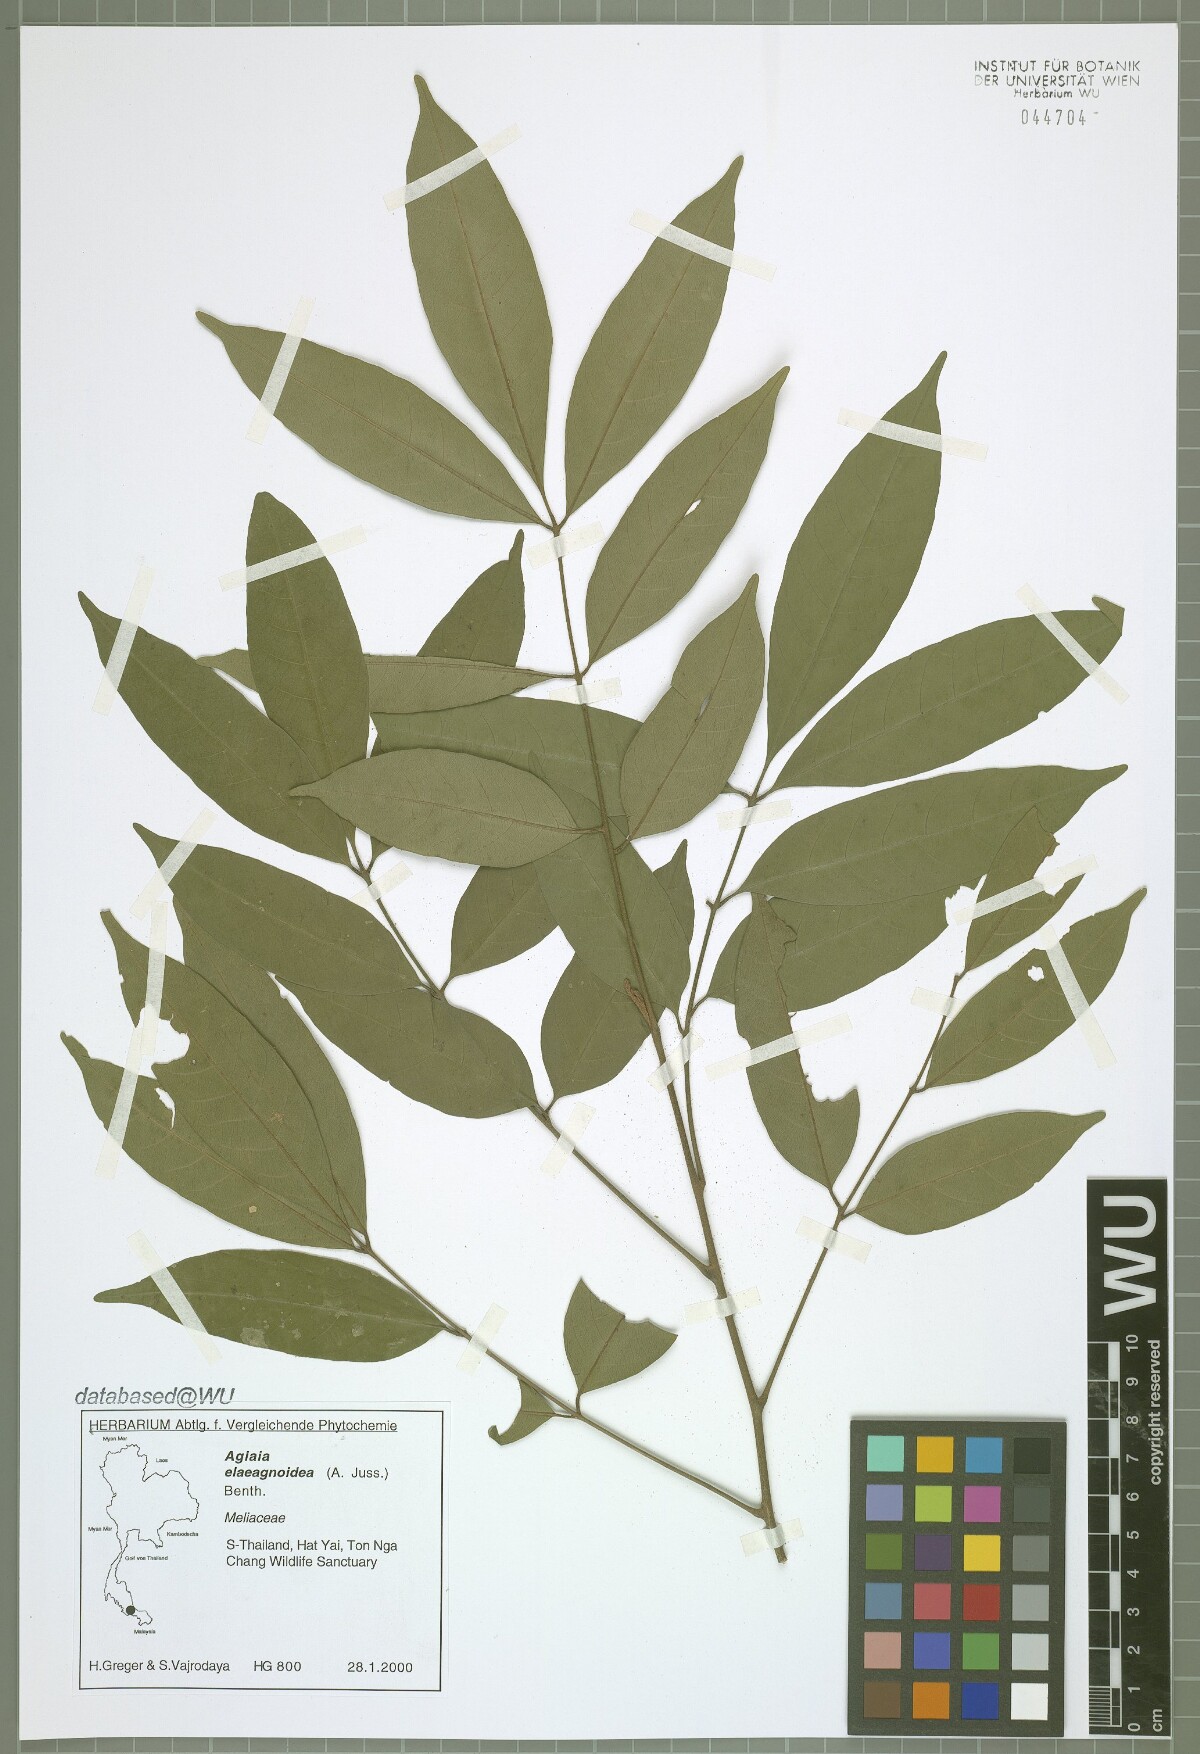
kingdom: Plantae
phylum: Tracheophyta
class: Magnoliopsida
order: Sapindales
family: Meliaceae
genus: Aglaia
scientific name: Aglaia elaeagnoidea
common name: Droopyleaf
